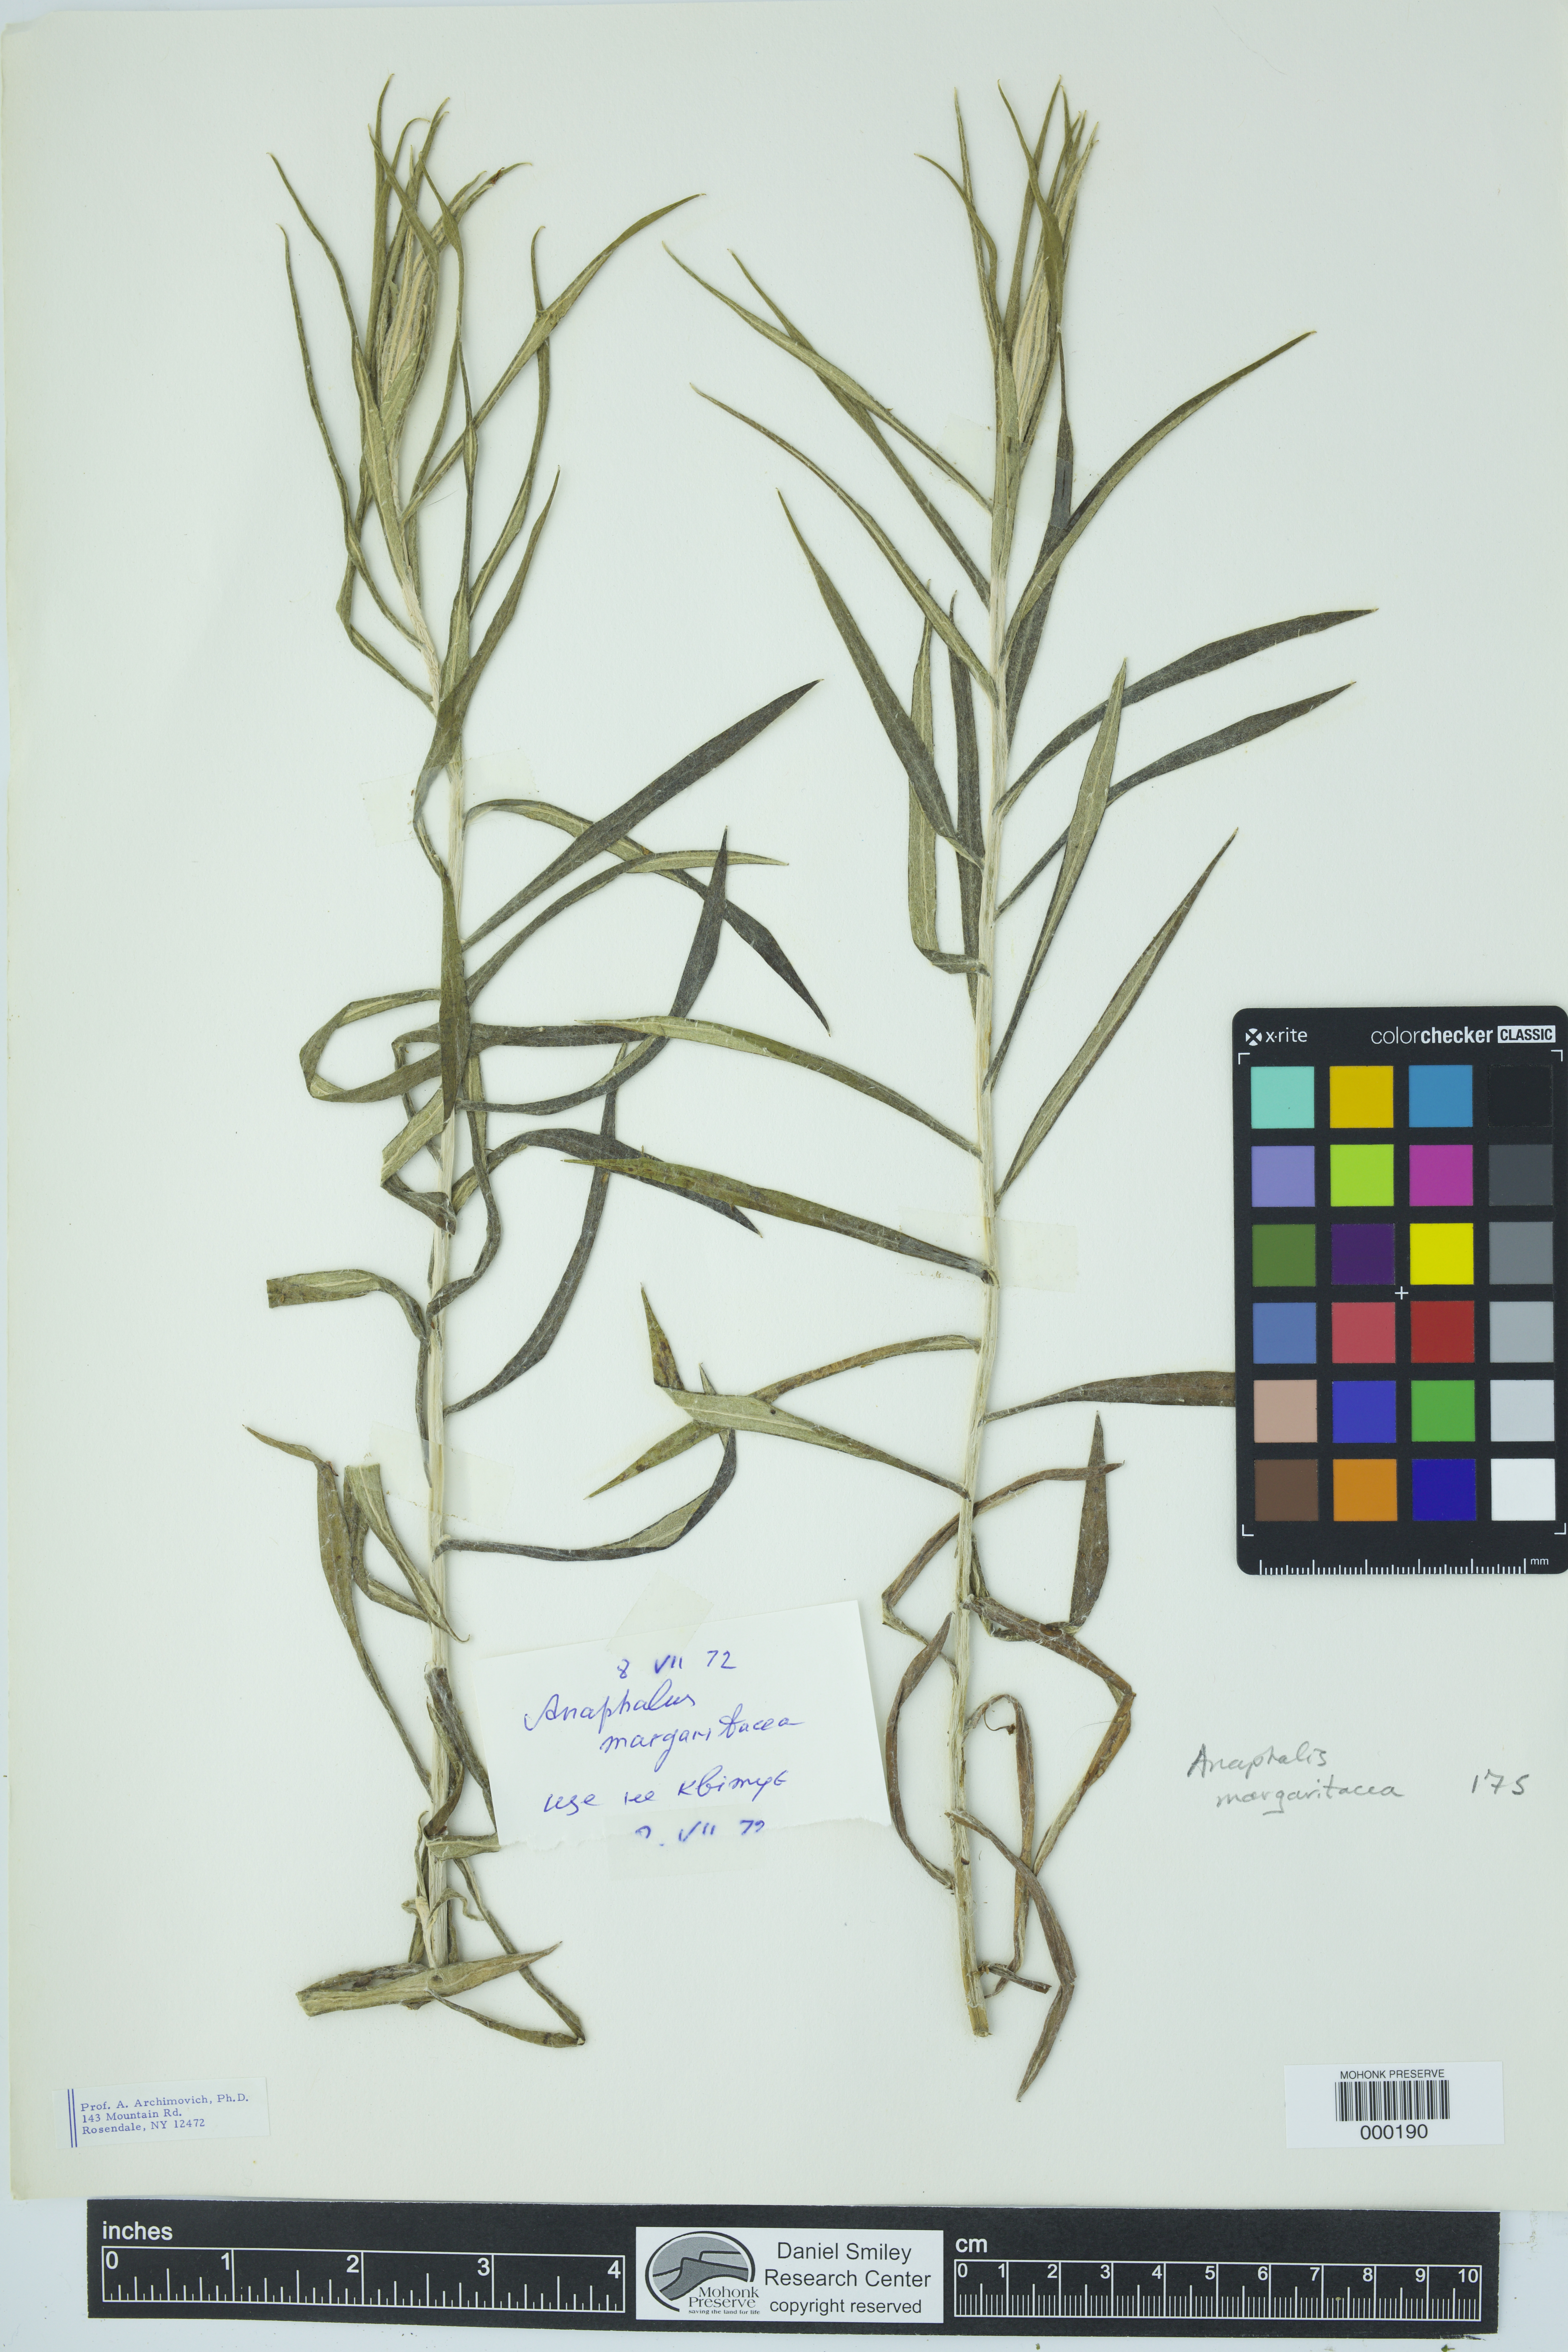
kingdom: Plantae
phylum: Tracheophyta
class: Magnoliopsida
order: Asterales
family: Asteraceae
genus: Anaphalis
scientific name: Anaphalis margaritacea
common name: Pearly everlasting
